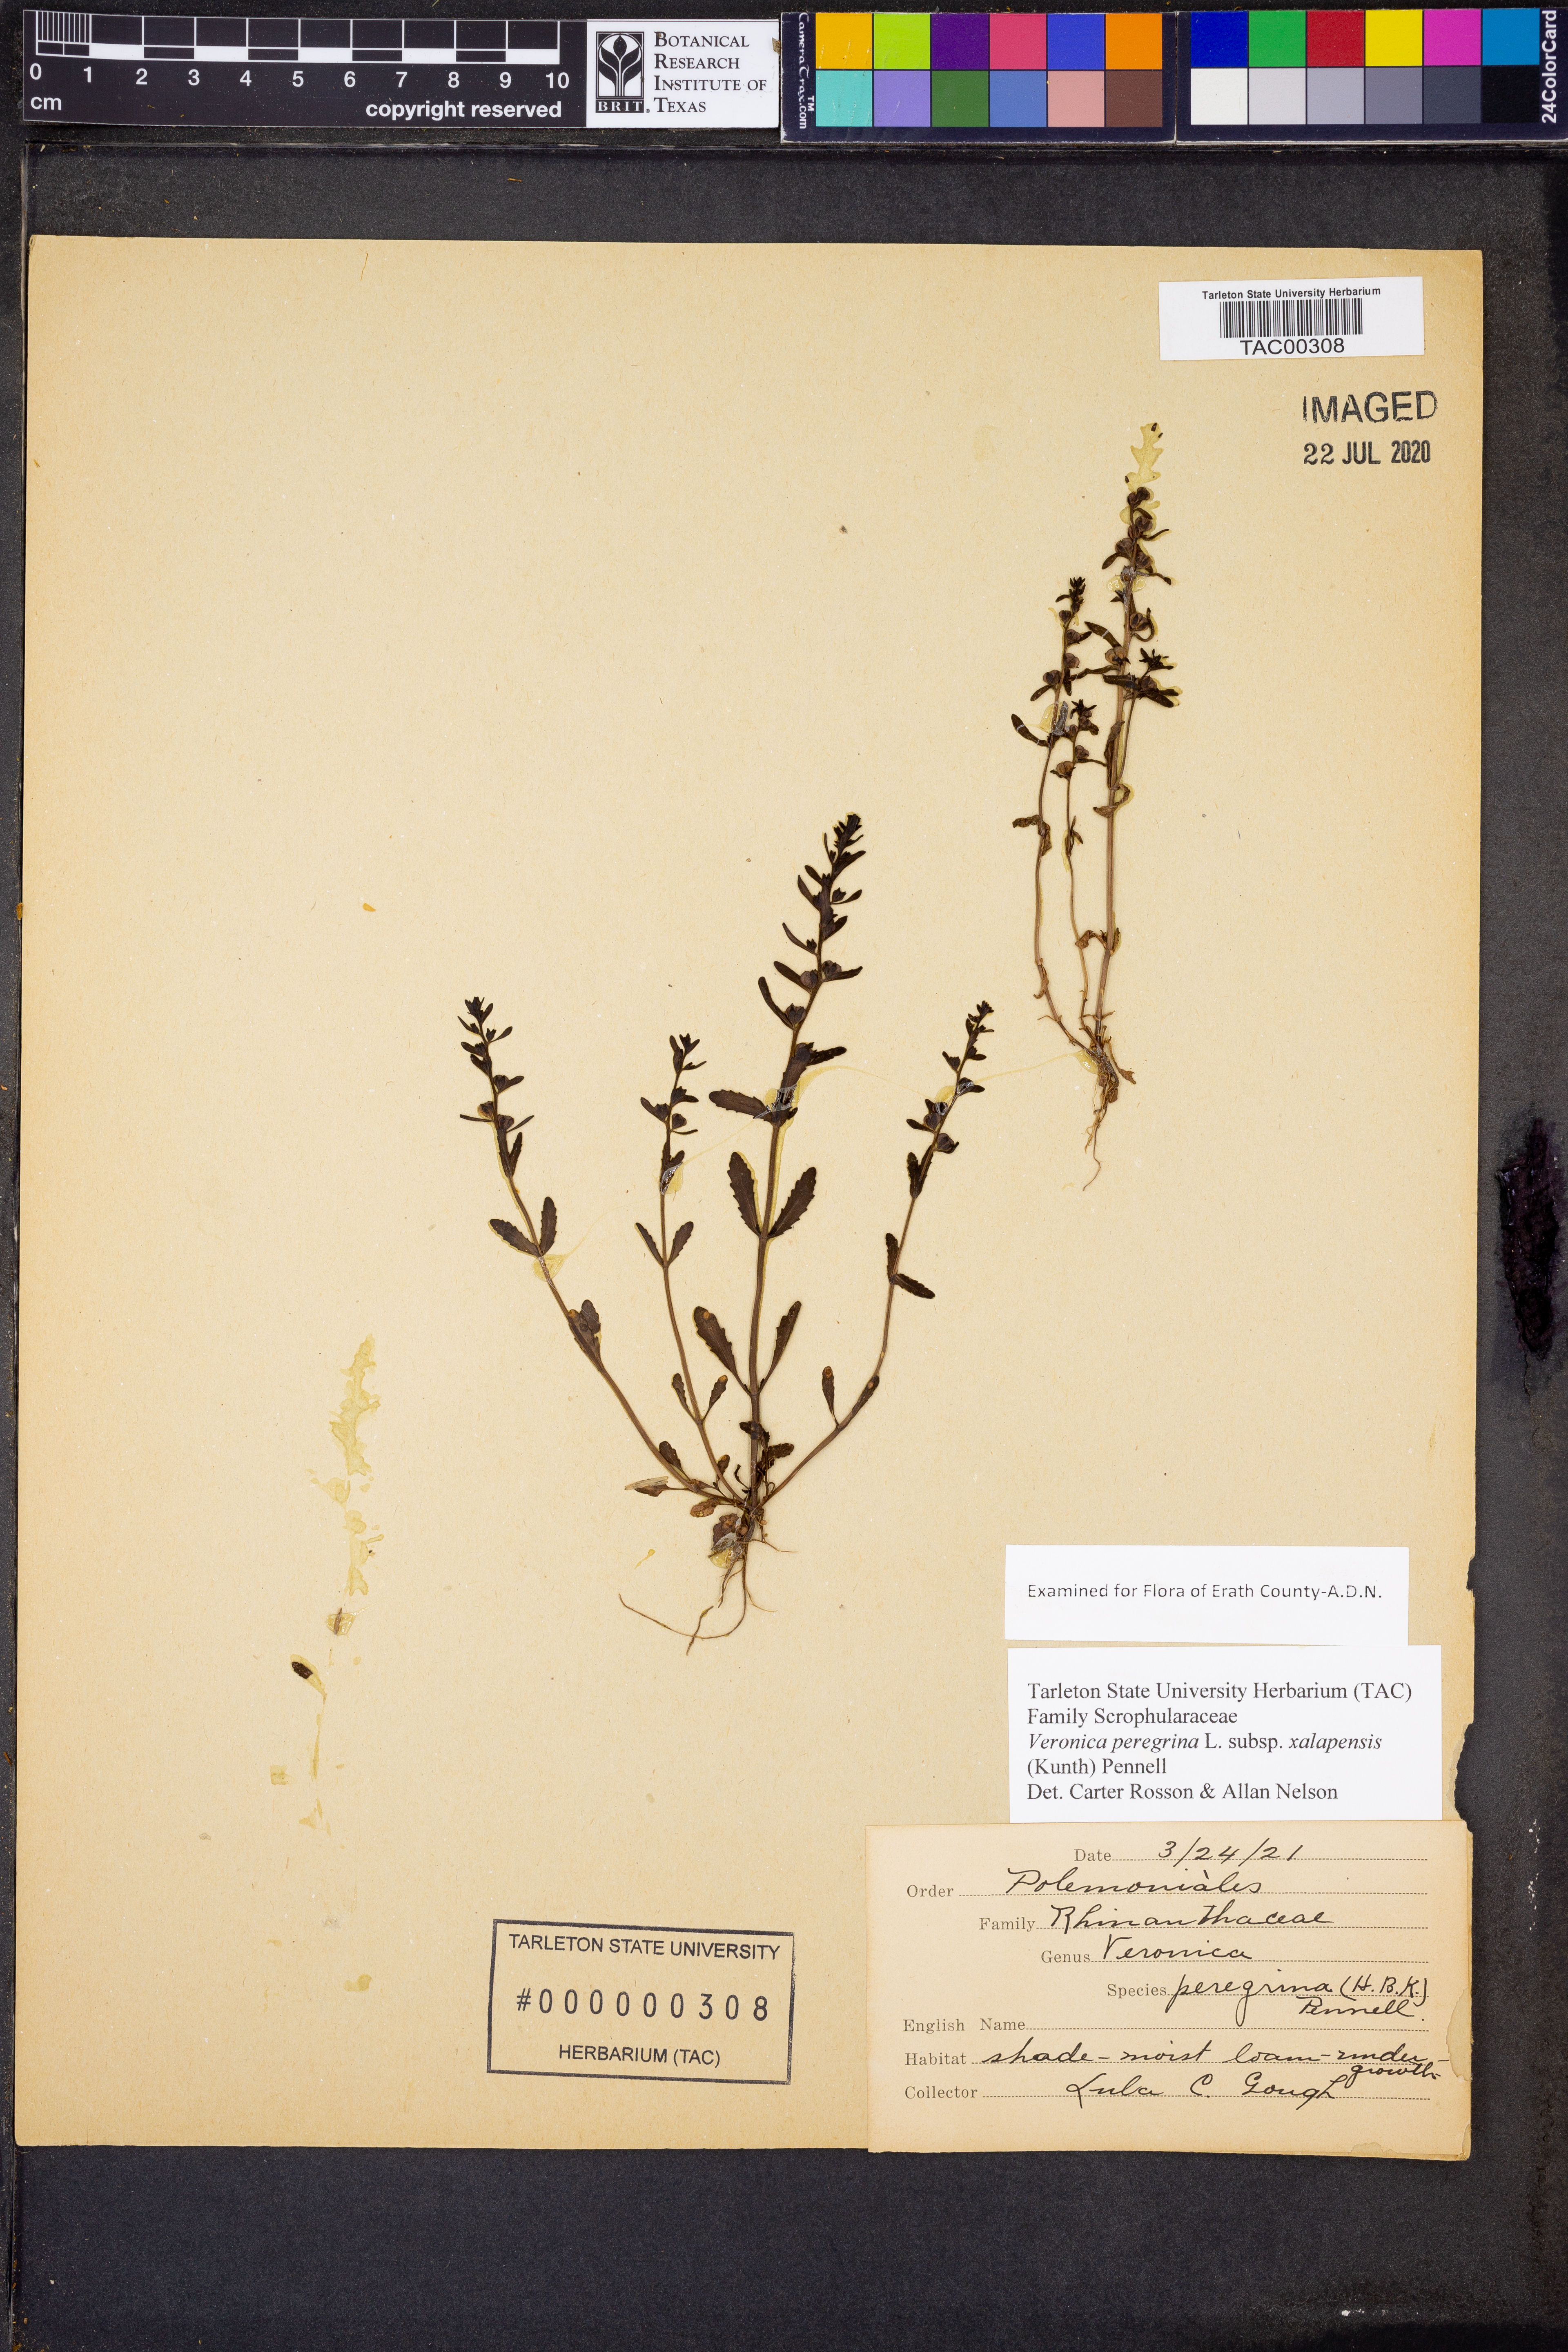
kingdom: Plantae
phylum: Tracheophyta
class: Magnoliopsida
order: Lamiales
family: Plantaginaceae
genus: Veronica
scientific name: Veronica peregrina
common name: Neckweed
